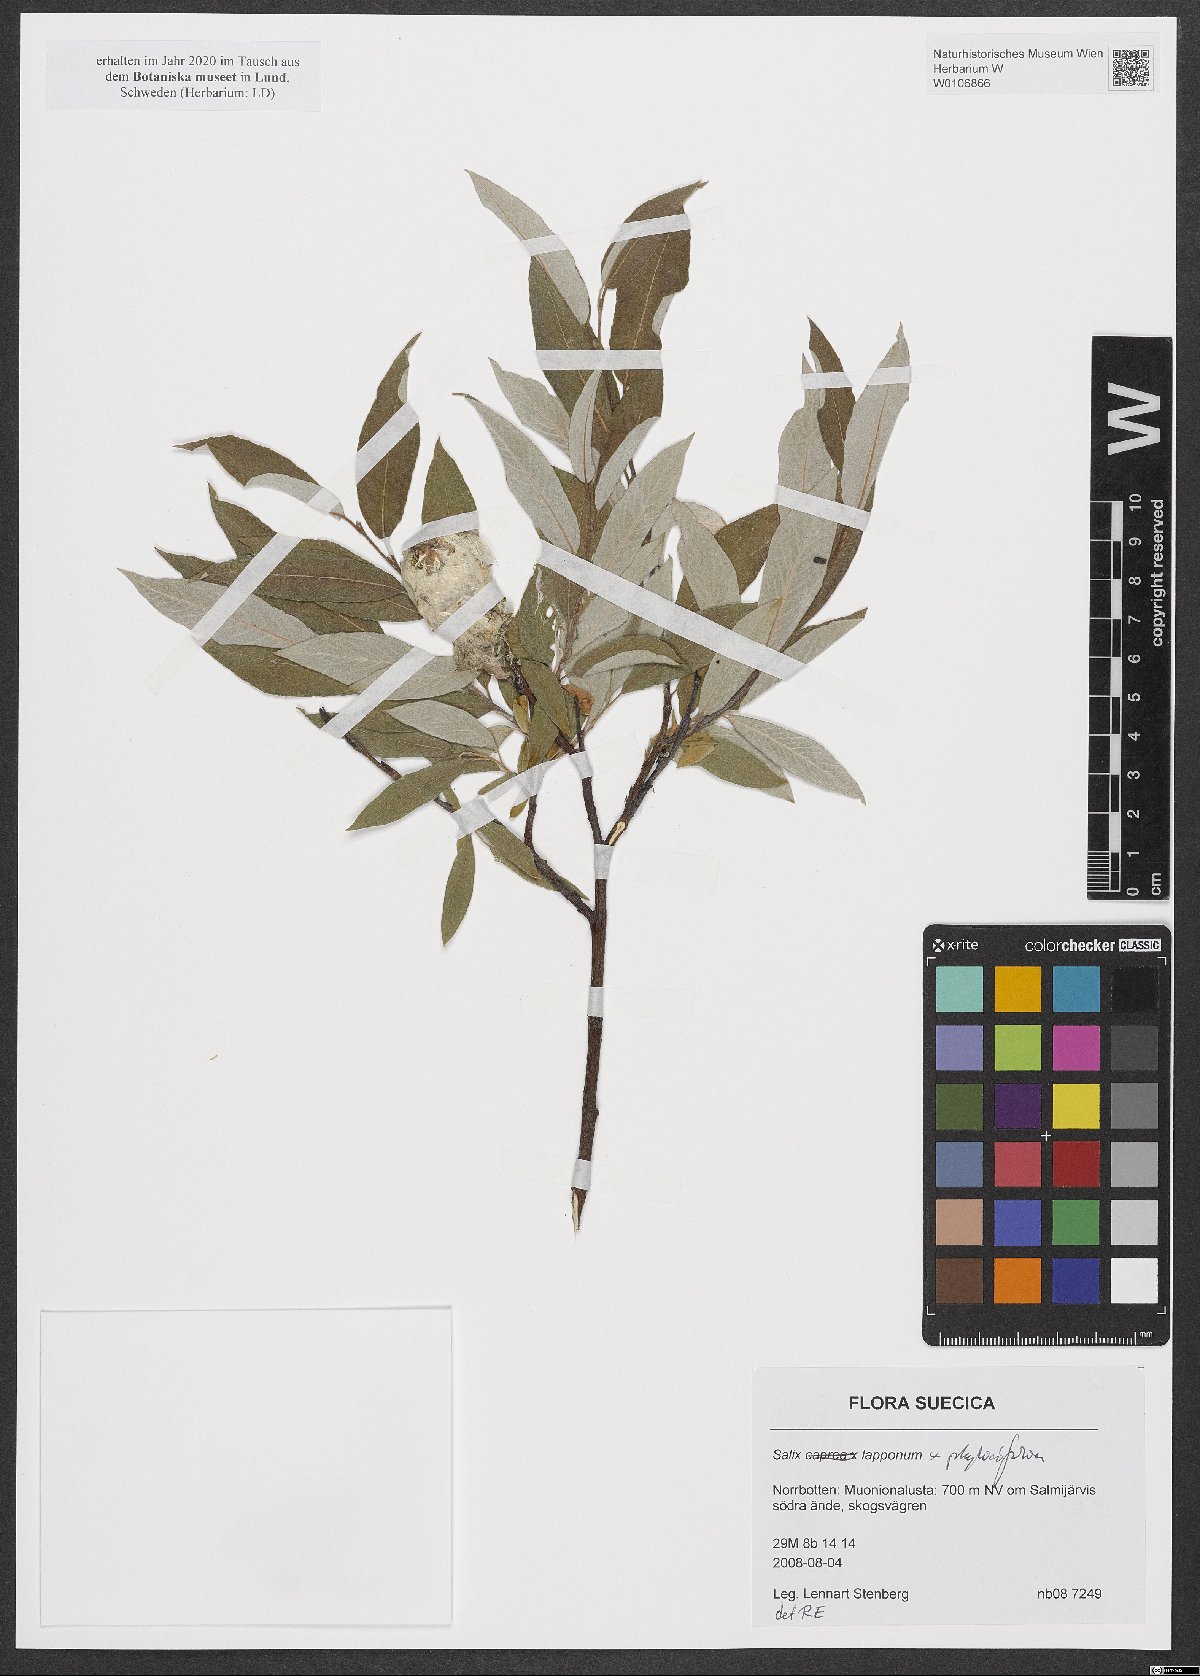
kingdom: Plantae
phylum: Tracheophyta
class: Magnoliopsida
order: Malpighiales
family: Salicaceae
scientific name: Salicaceae
